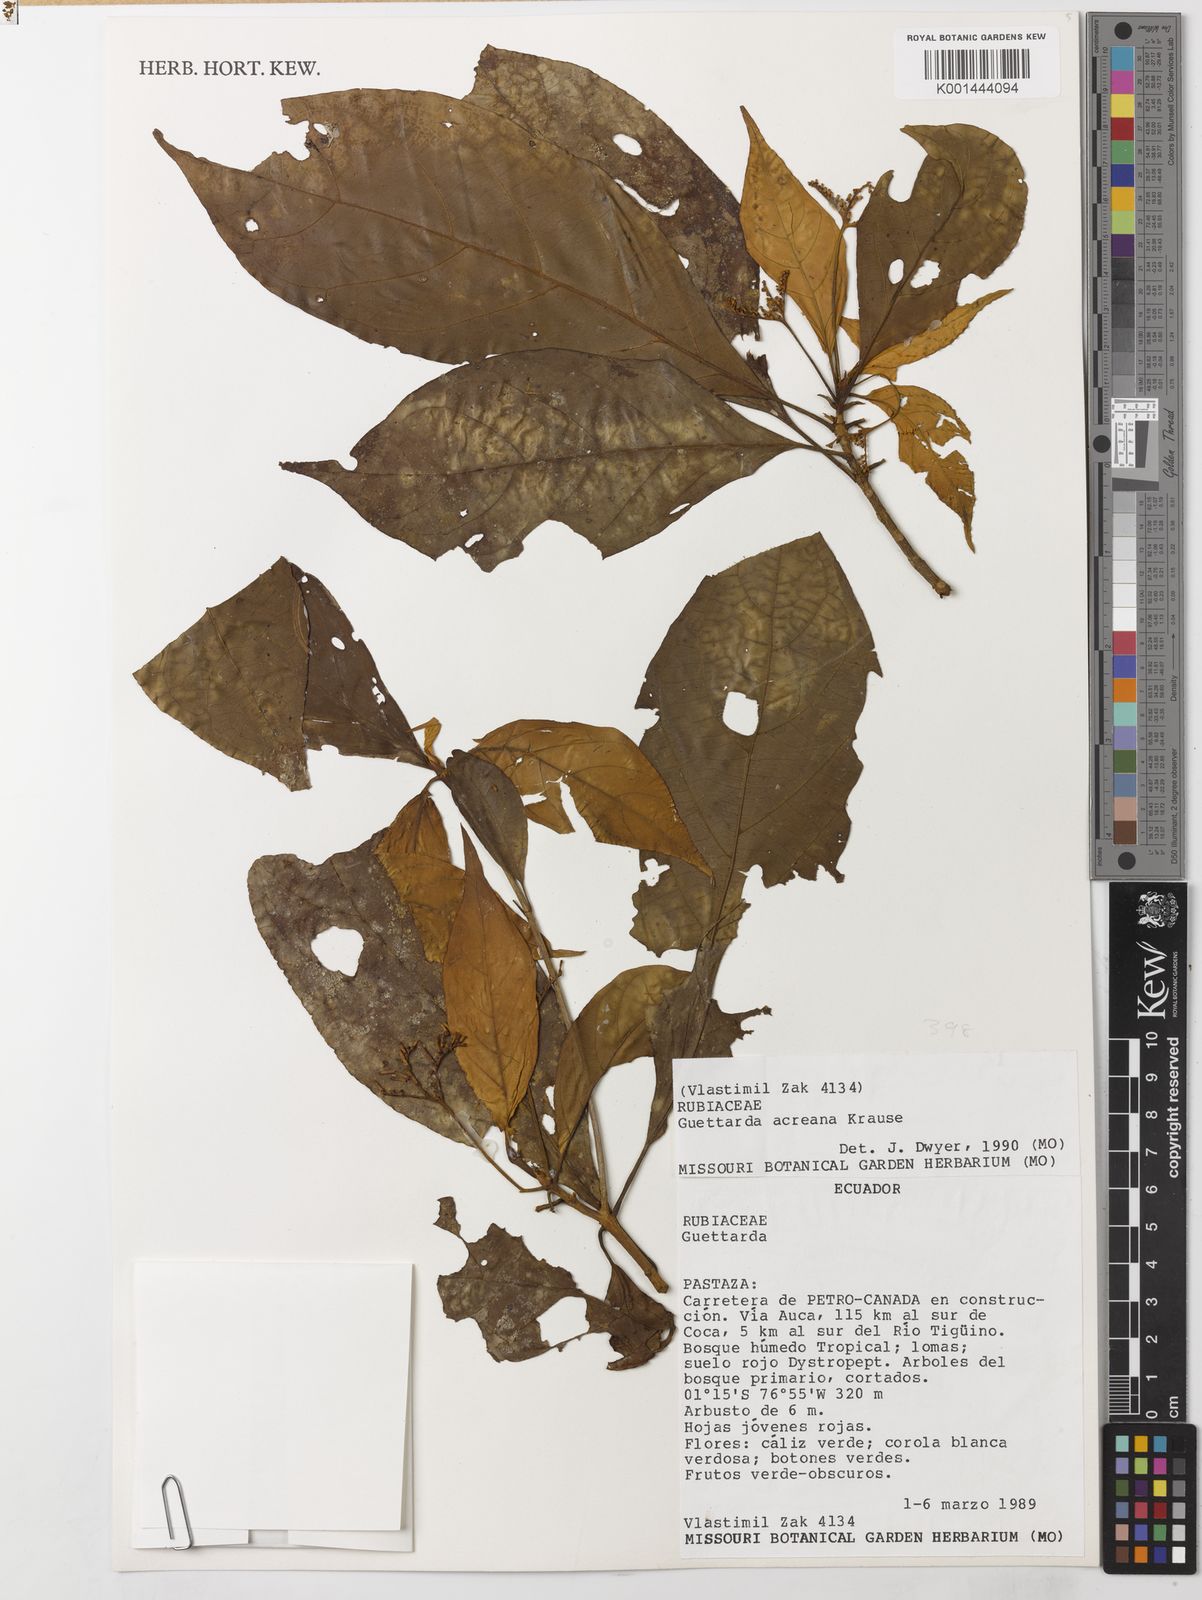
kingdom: Plantae
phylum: Tracheophyta
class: Magnoliopsida
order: Gentianales
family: Rubiaceae
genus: Stenostomum
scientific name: Stenostomum
